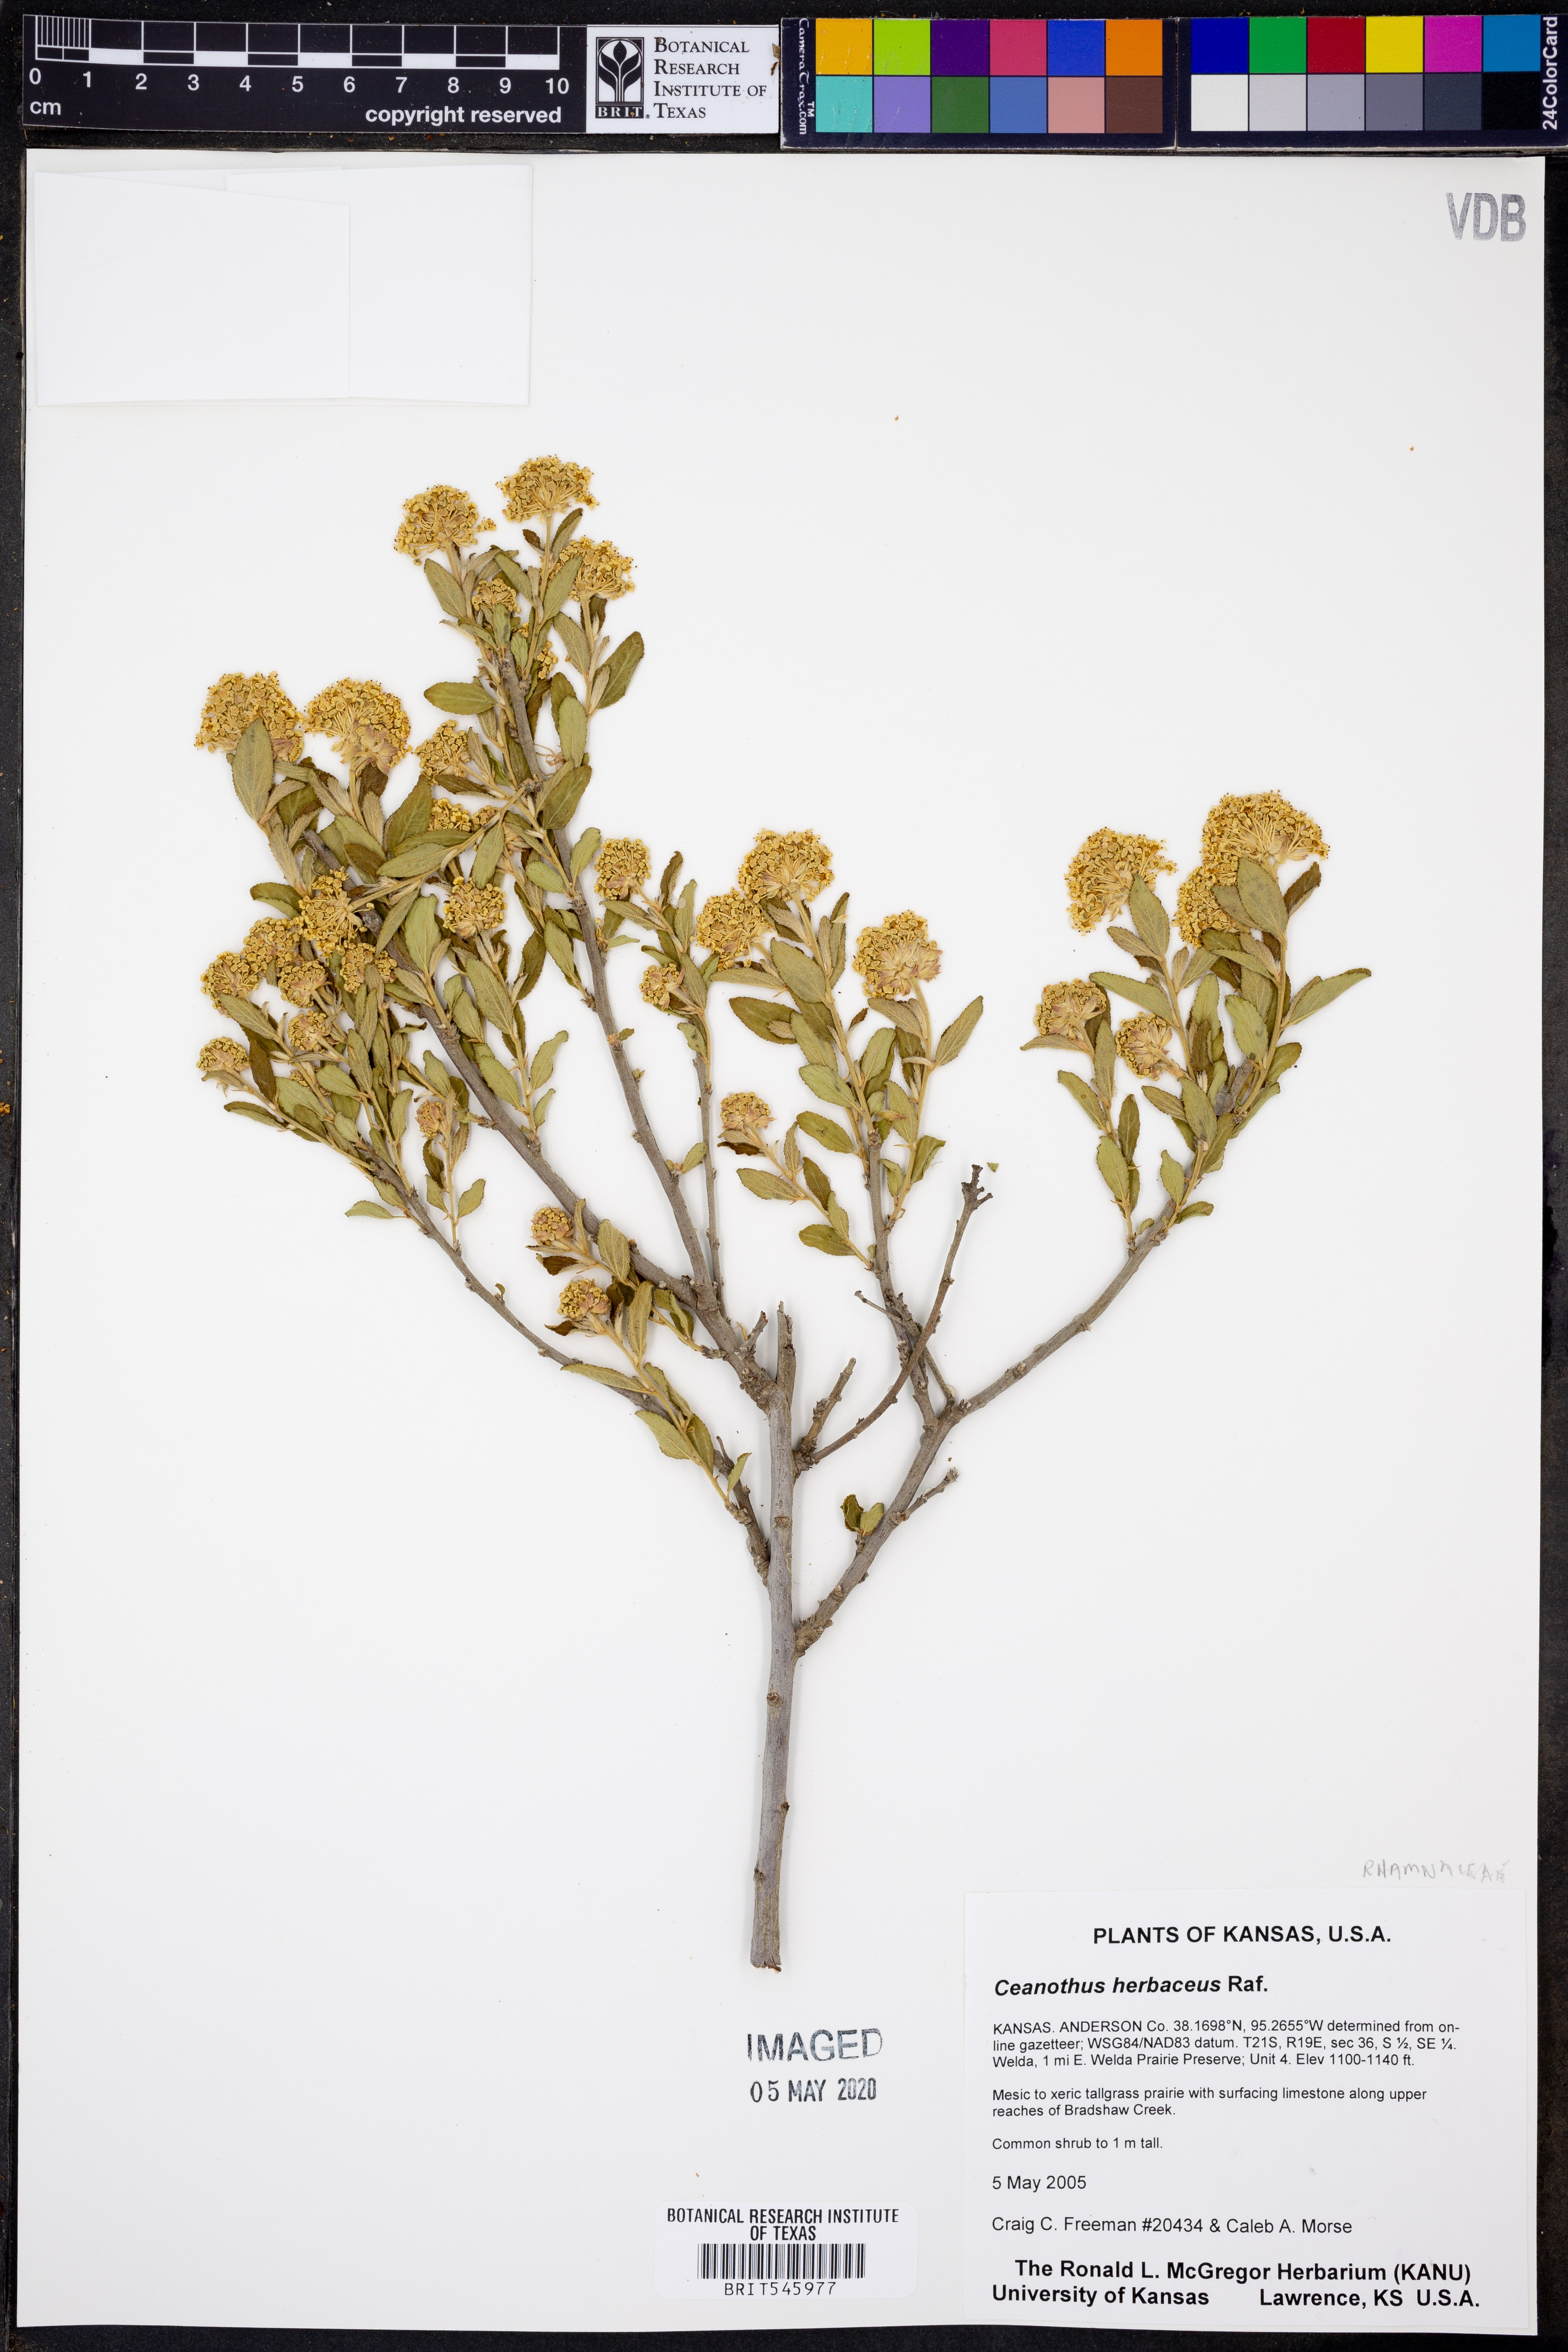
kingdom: Plantae
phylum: Tracheophyta
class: Magnoliopsida
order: Rosales
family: Rhamnaceae
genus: Ceanothus
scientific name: Ceanothus herbaceus
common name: Inland ceanothus
